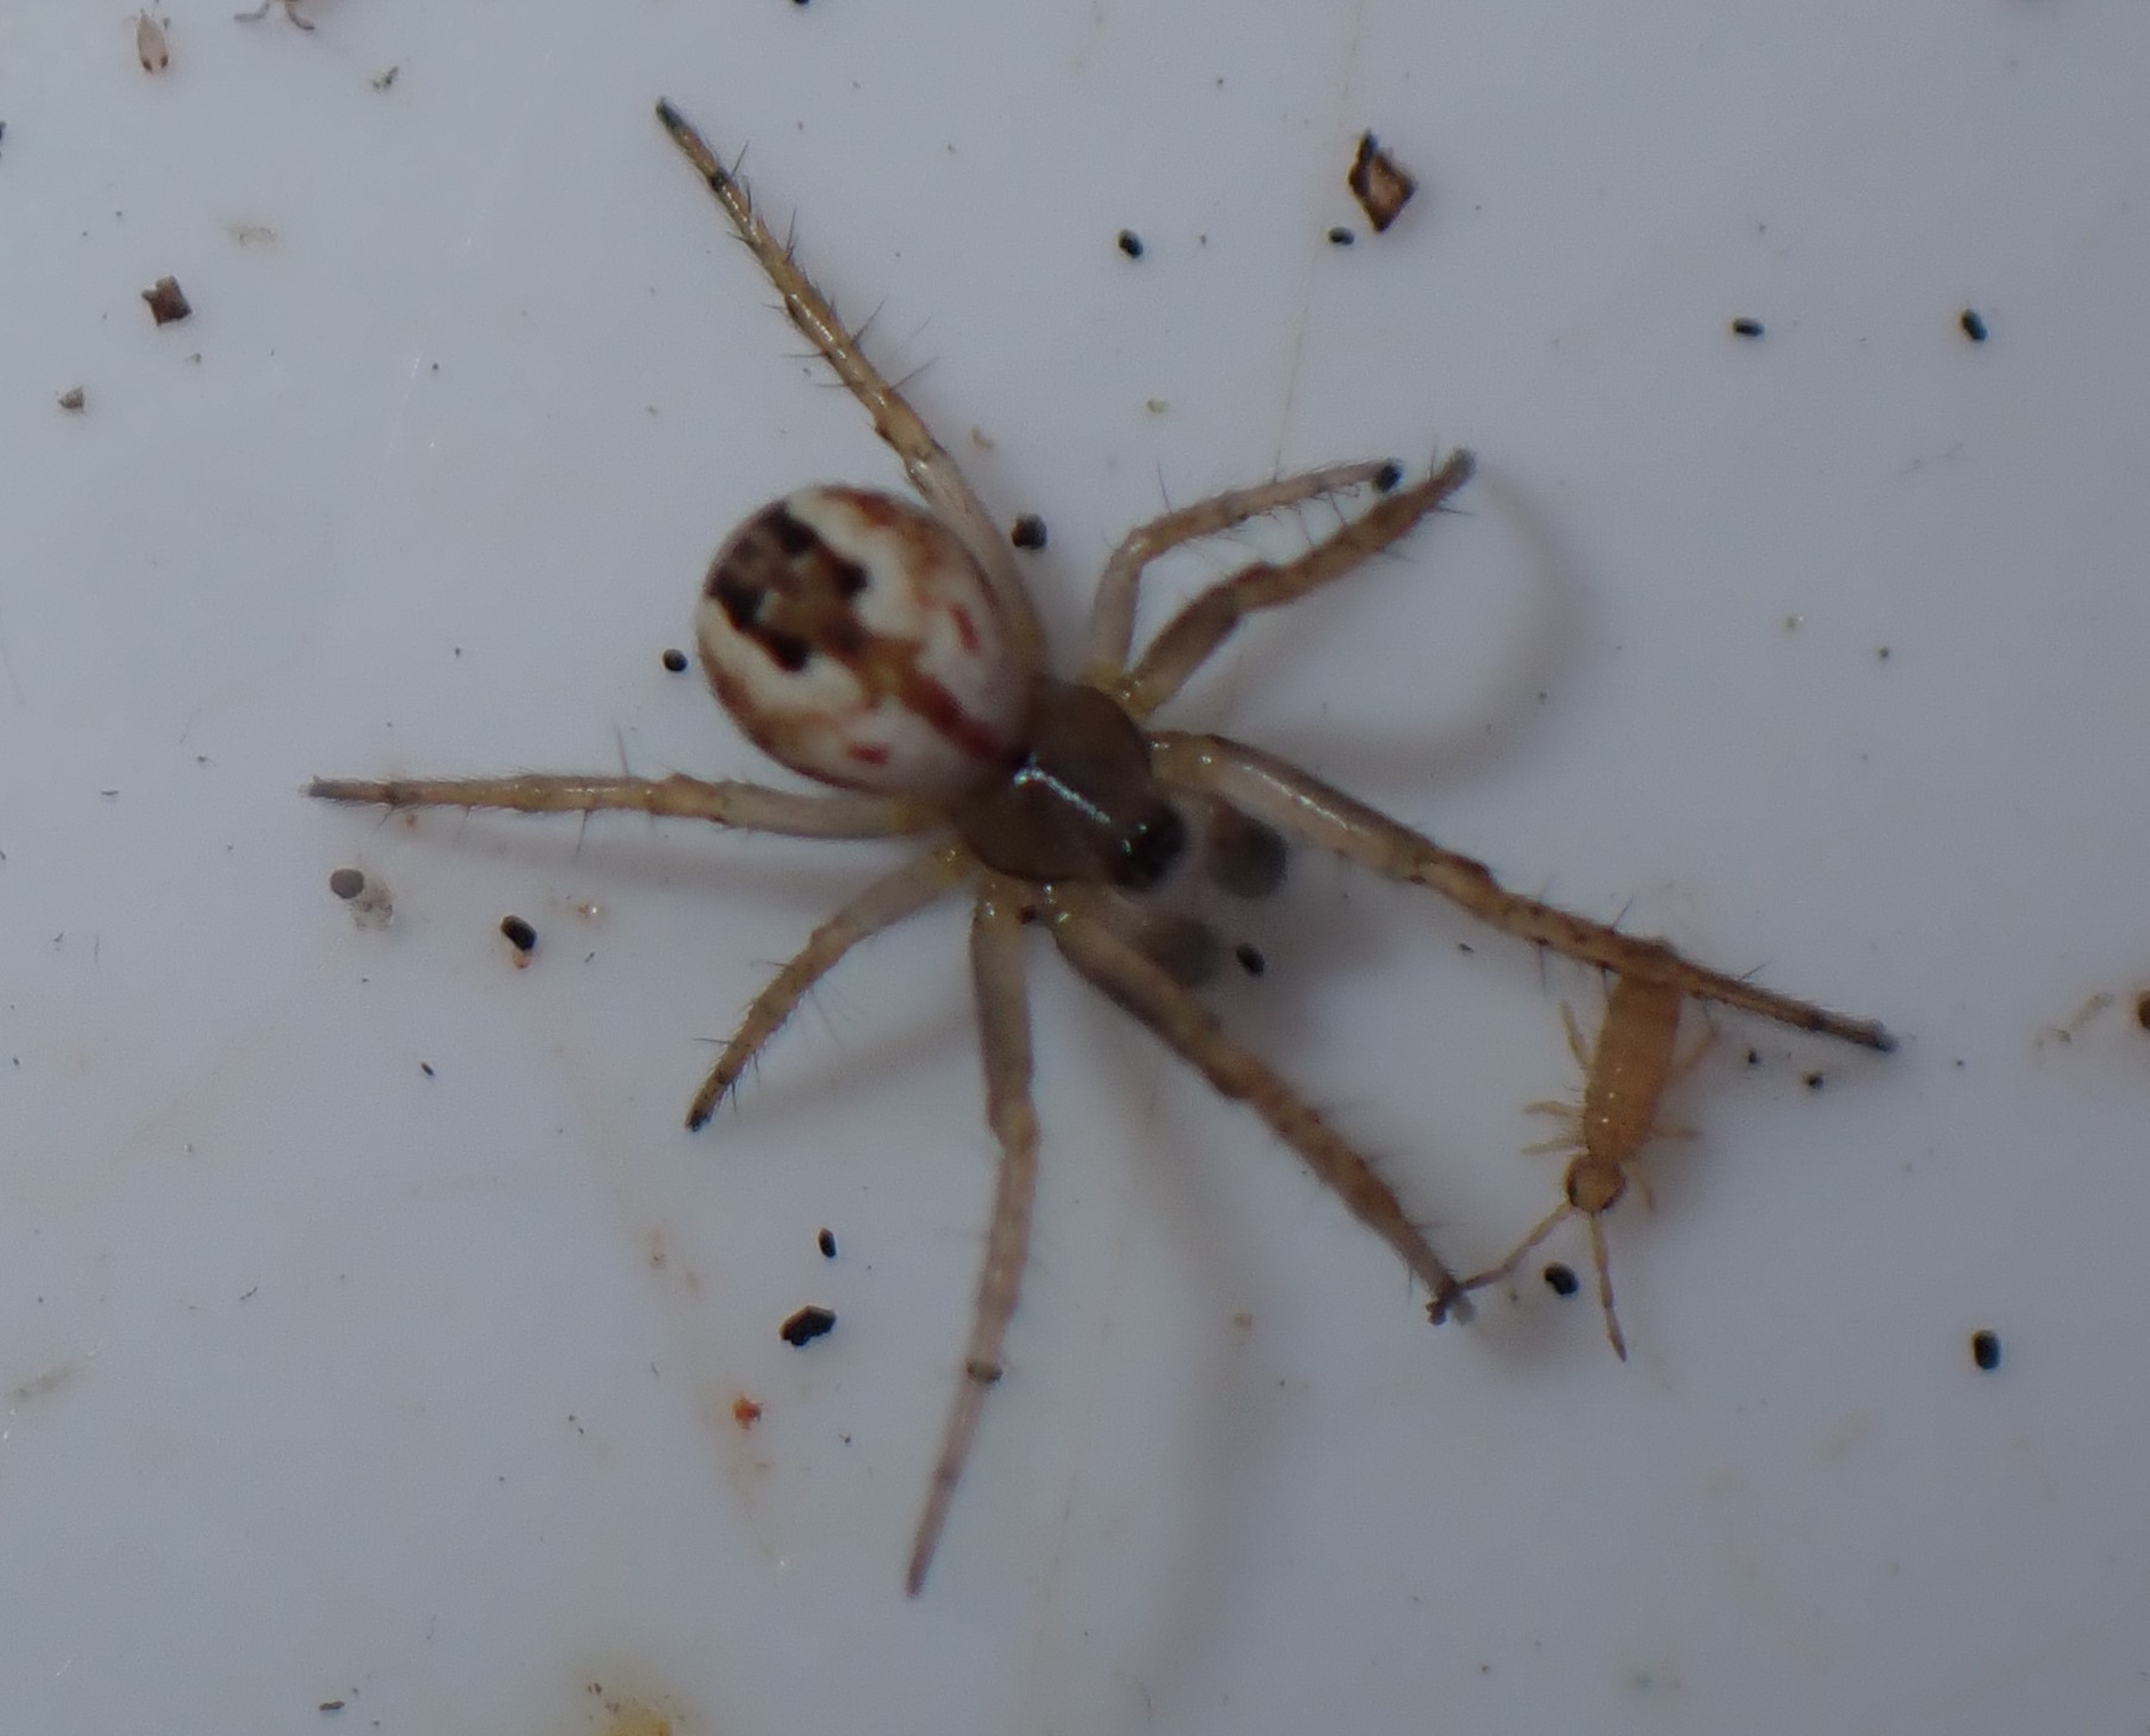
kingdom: Animalia
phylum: Arthropoda
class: Arachnida
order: Araneae
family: Araneidae
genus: Mangora
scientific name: Mangora acalypha
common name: Sortstribet hedehjulspinder
